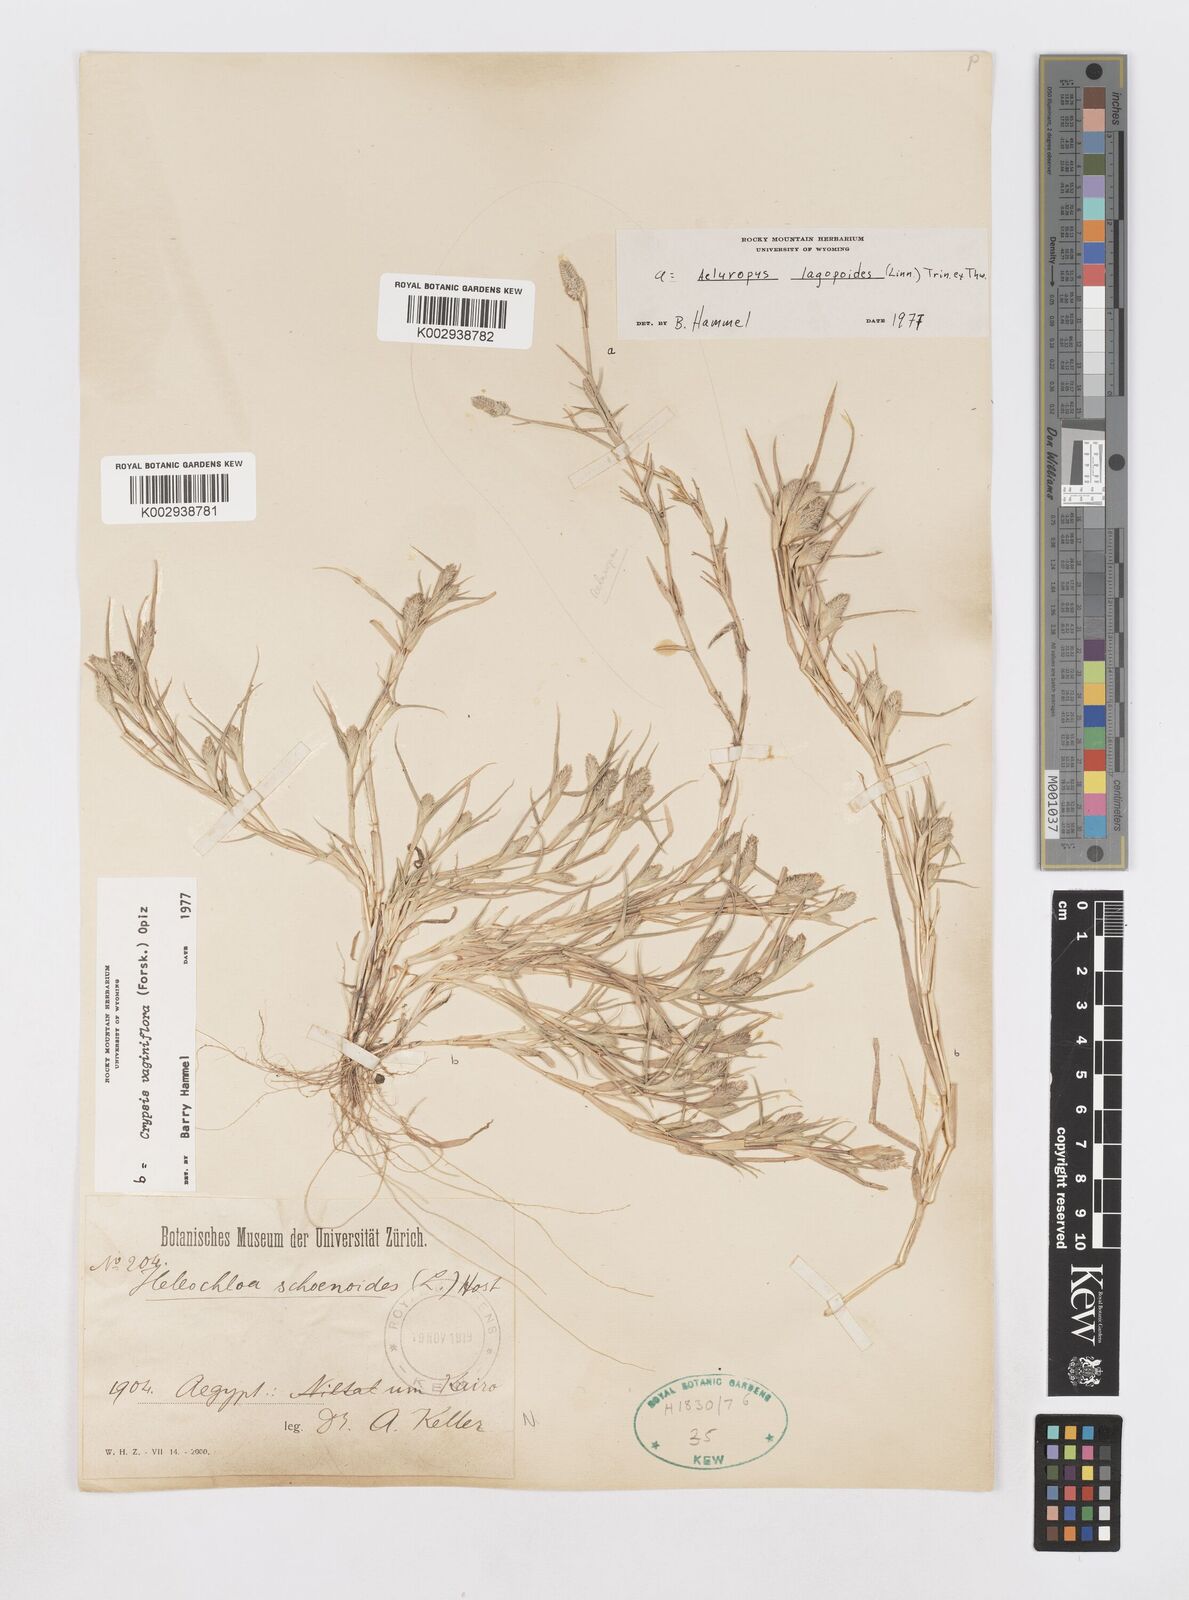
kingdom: Plantae
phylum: Tracheophyta
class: Liliopsida
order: Poales
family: Poaceae
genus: Sporobolus
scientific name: Sporobolus niliacus
